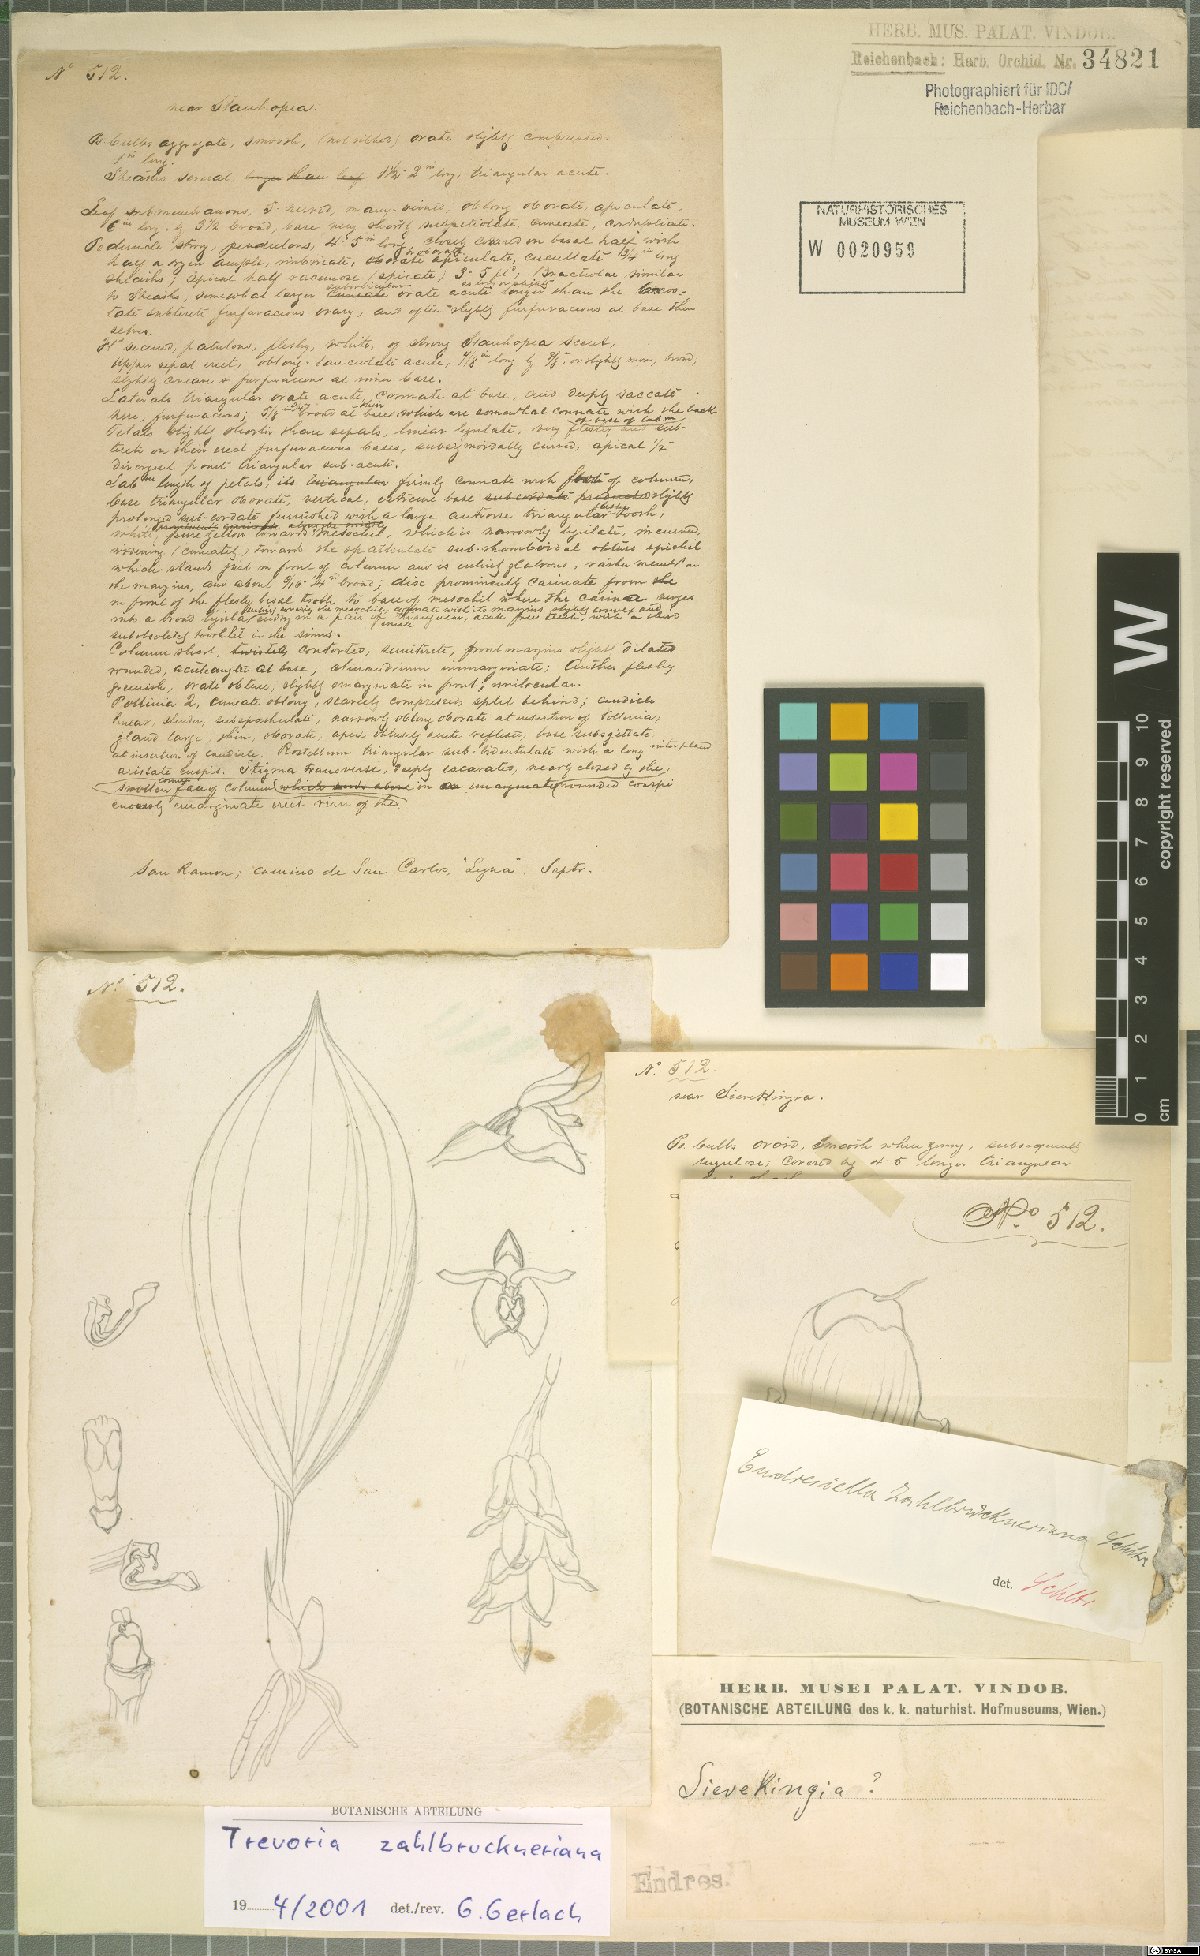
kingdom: Plantae
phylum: Tracheophyta
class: Liliopsida
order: Asparagales
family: Orchidaceae
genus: Trevoria
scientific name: Trevoria zahlbruckneriana
